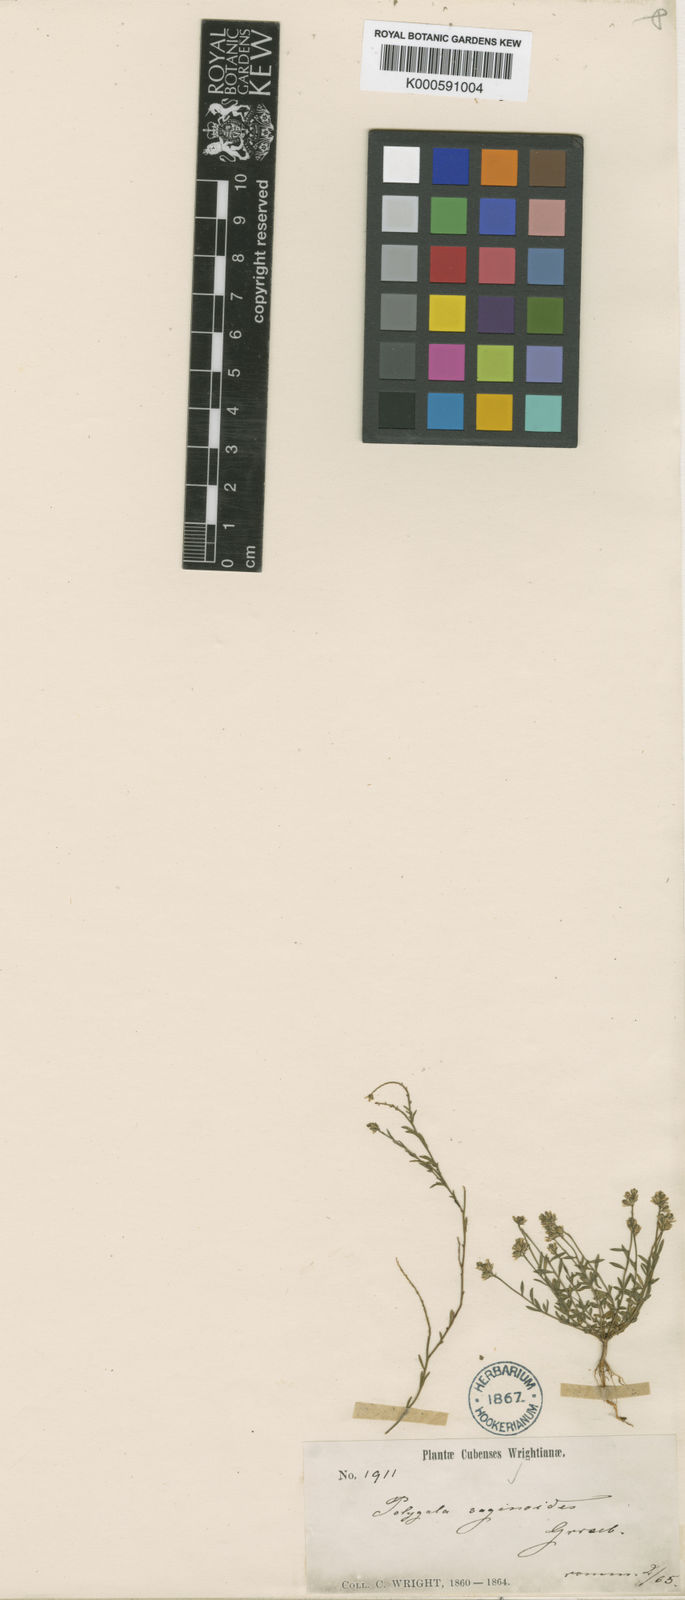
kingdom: Plantae
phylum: Tracheophyta
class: Magnoliopsida
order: Fabales
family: Polygalaceae
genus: Polygala
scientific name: Polygala saginoides
